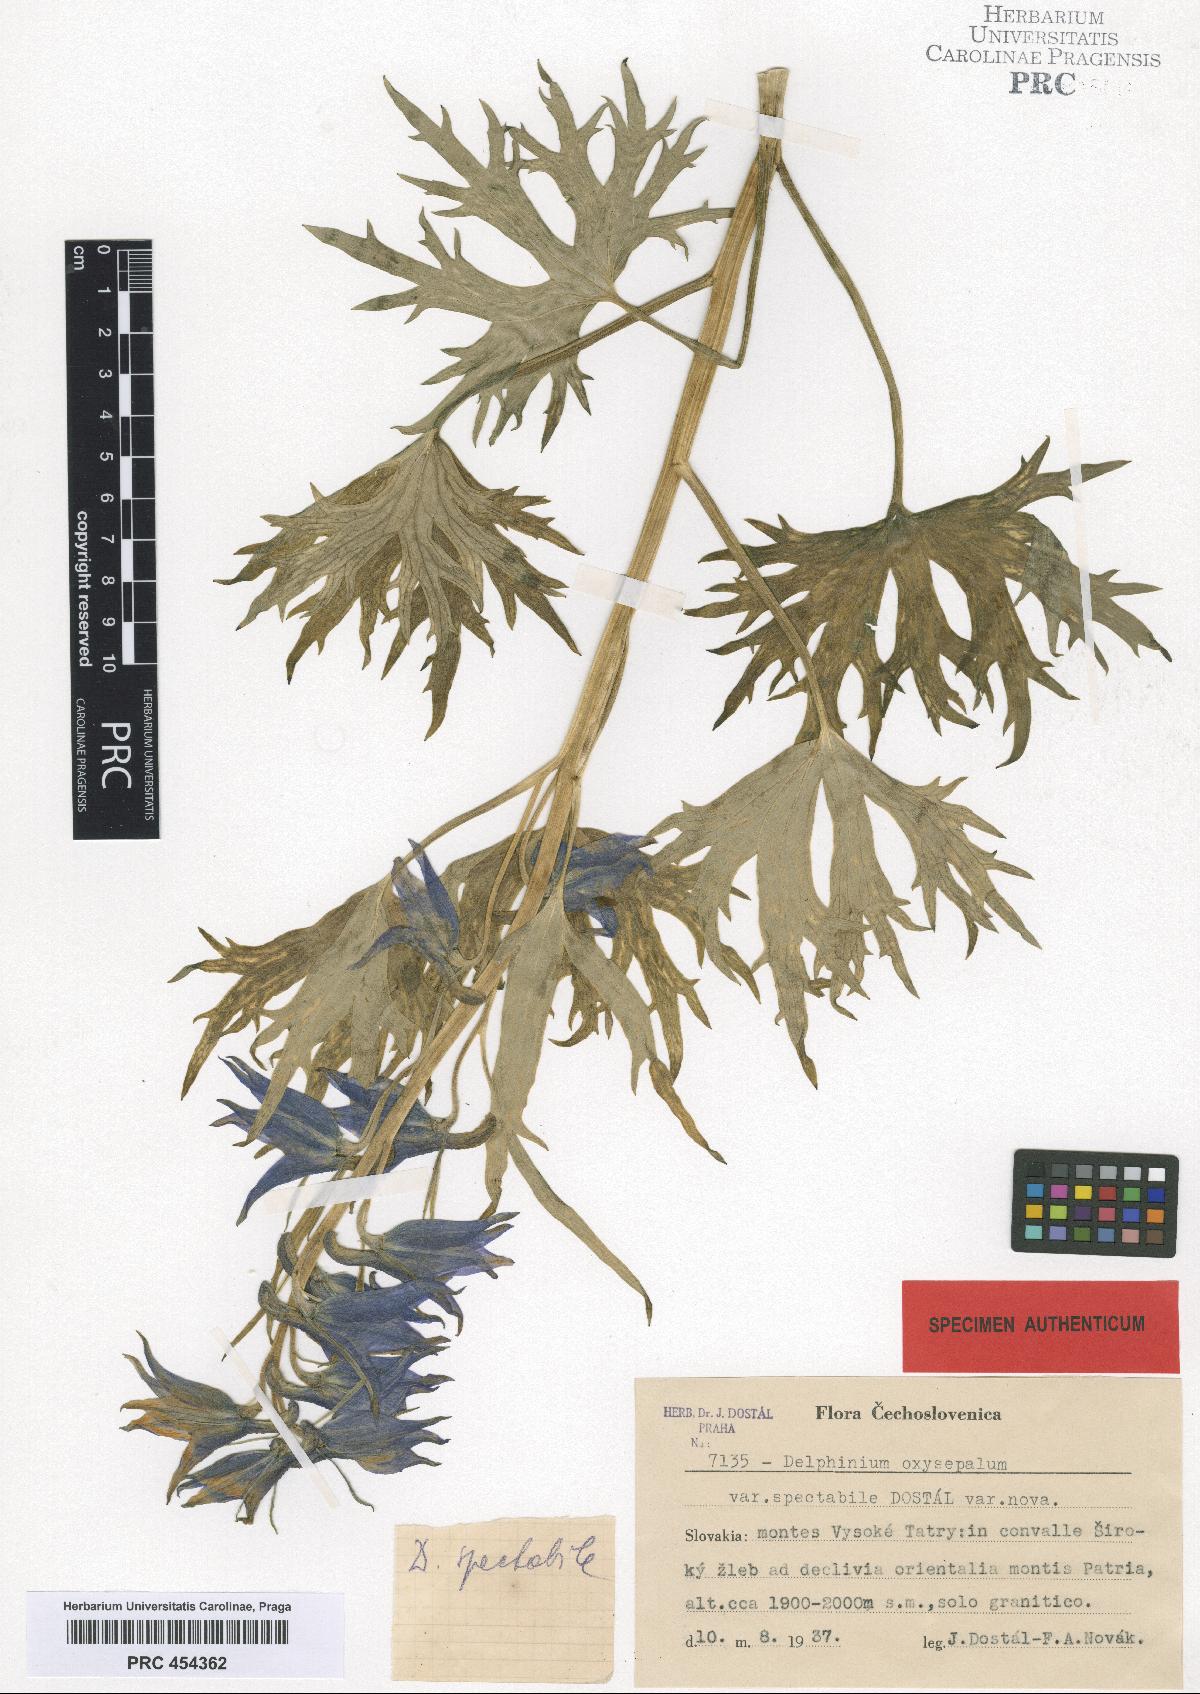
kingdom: Plantae
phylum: Tracheophyta
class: Magnoliopsida
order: Ranunculales
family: Ranunculaceae
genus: Delphinium
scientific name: Delphinium oxysepalum
